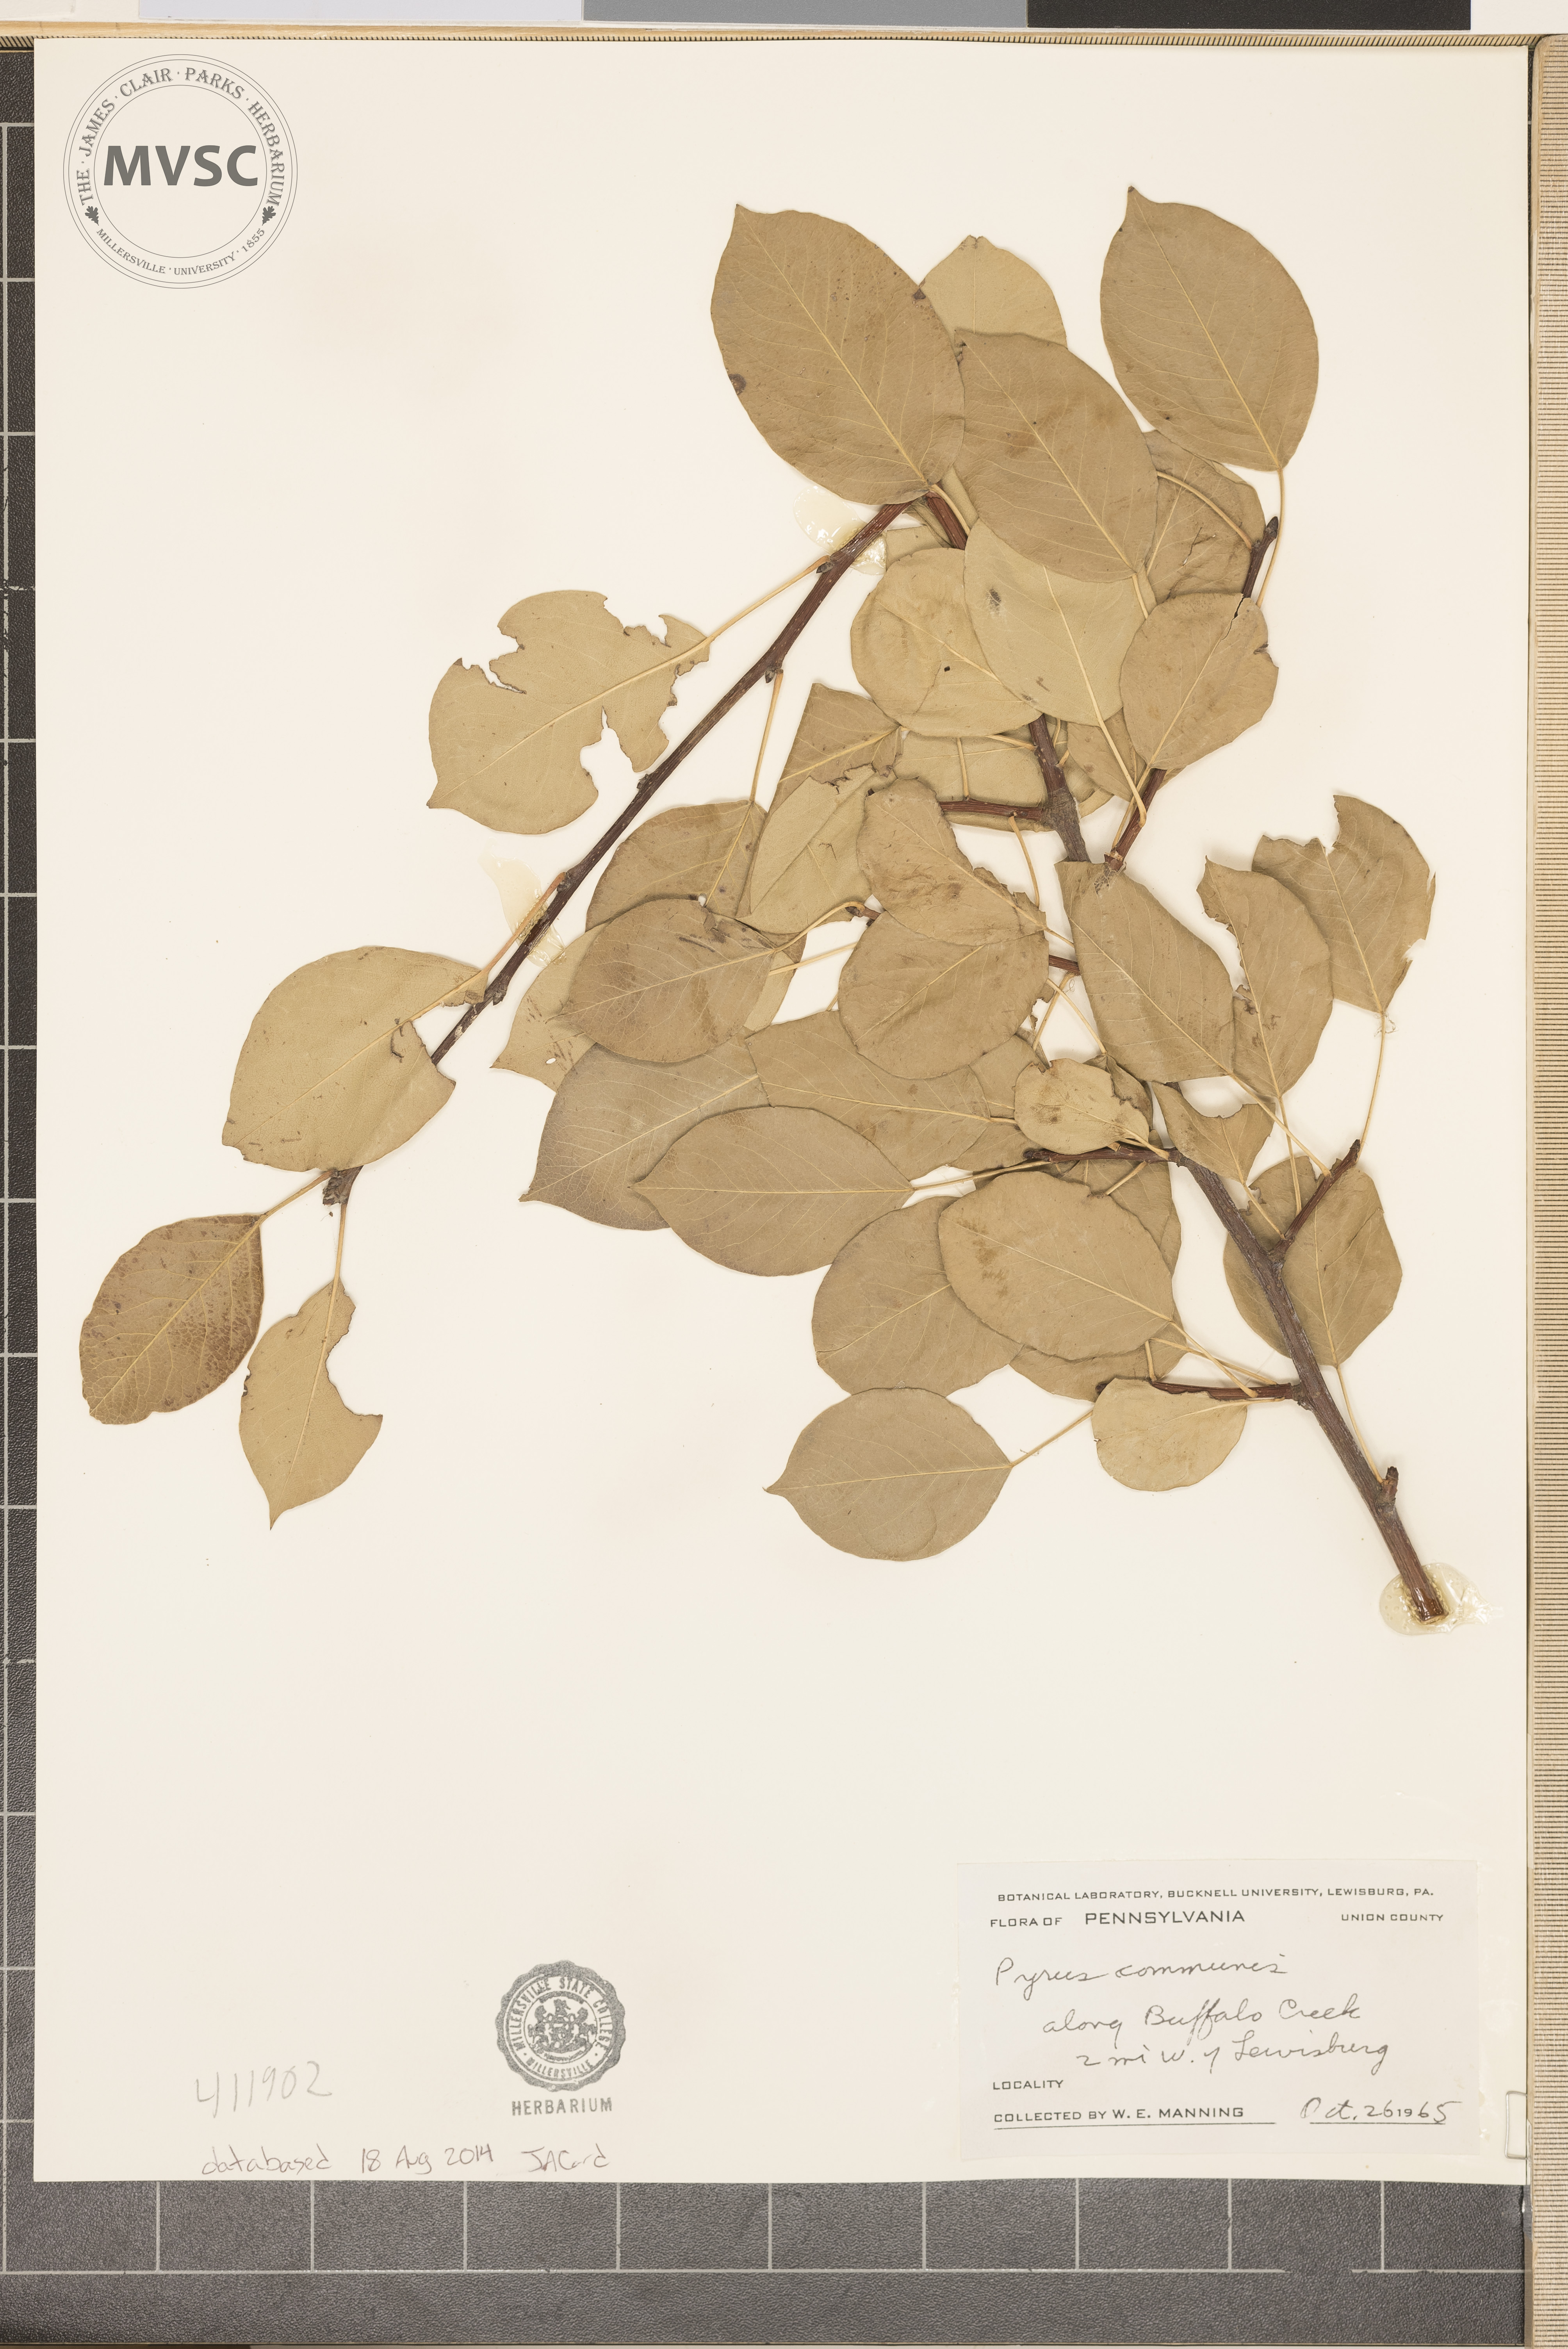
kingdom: Plantae
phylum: Tracheophyta
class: Magnoliopsida
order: Rosales
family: Rosaceae
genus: Pyrus
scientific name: Pyrus communis
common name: Pear
